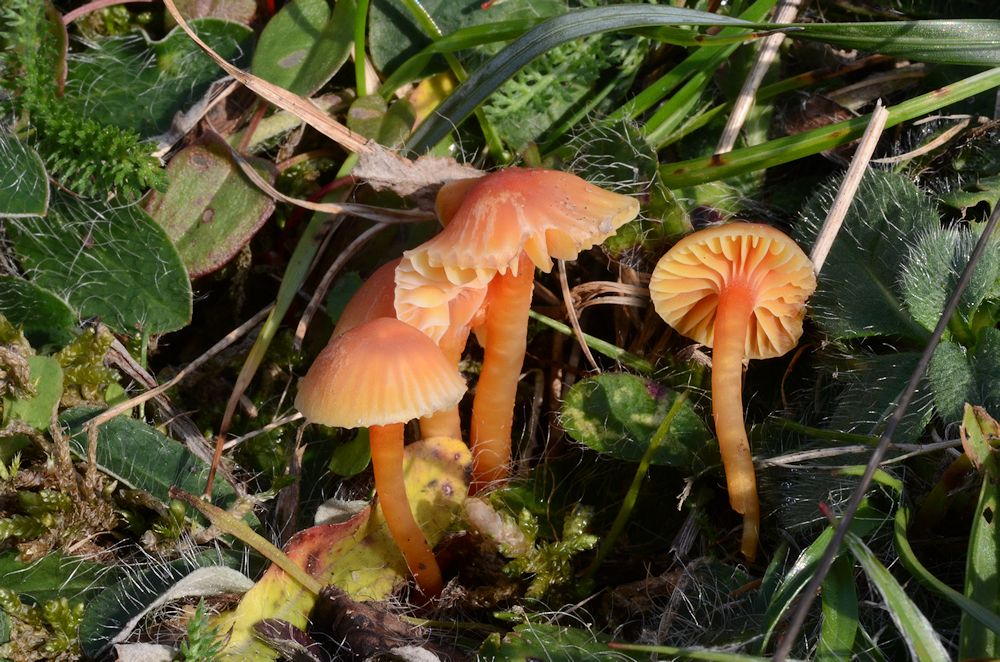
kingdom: Fungi
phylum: Basidiomycota
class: Agaricomycetes
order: Agaricales
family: Hygrophoraceae
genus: Hygrocybe
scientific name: Hygrocybe mucronella
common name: bitter vokshat
